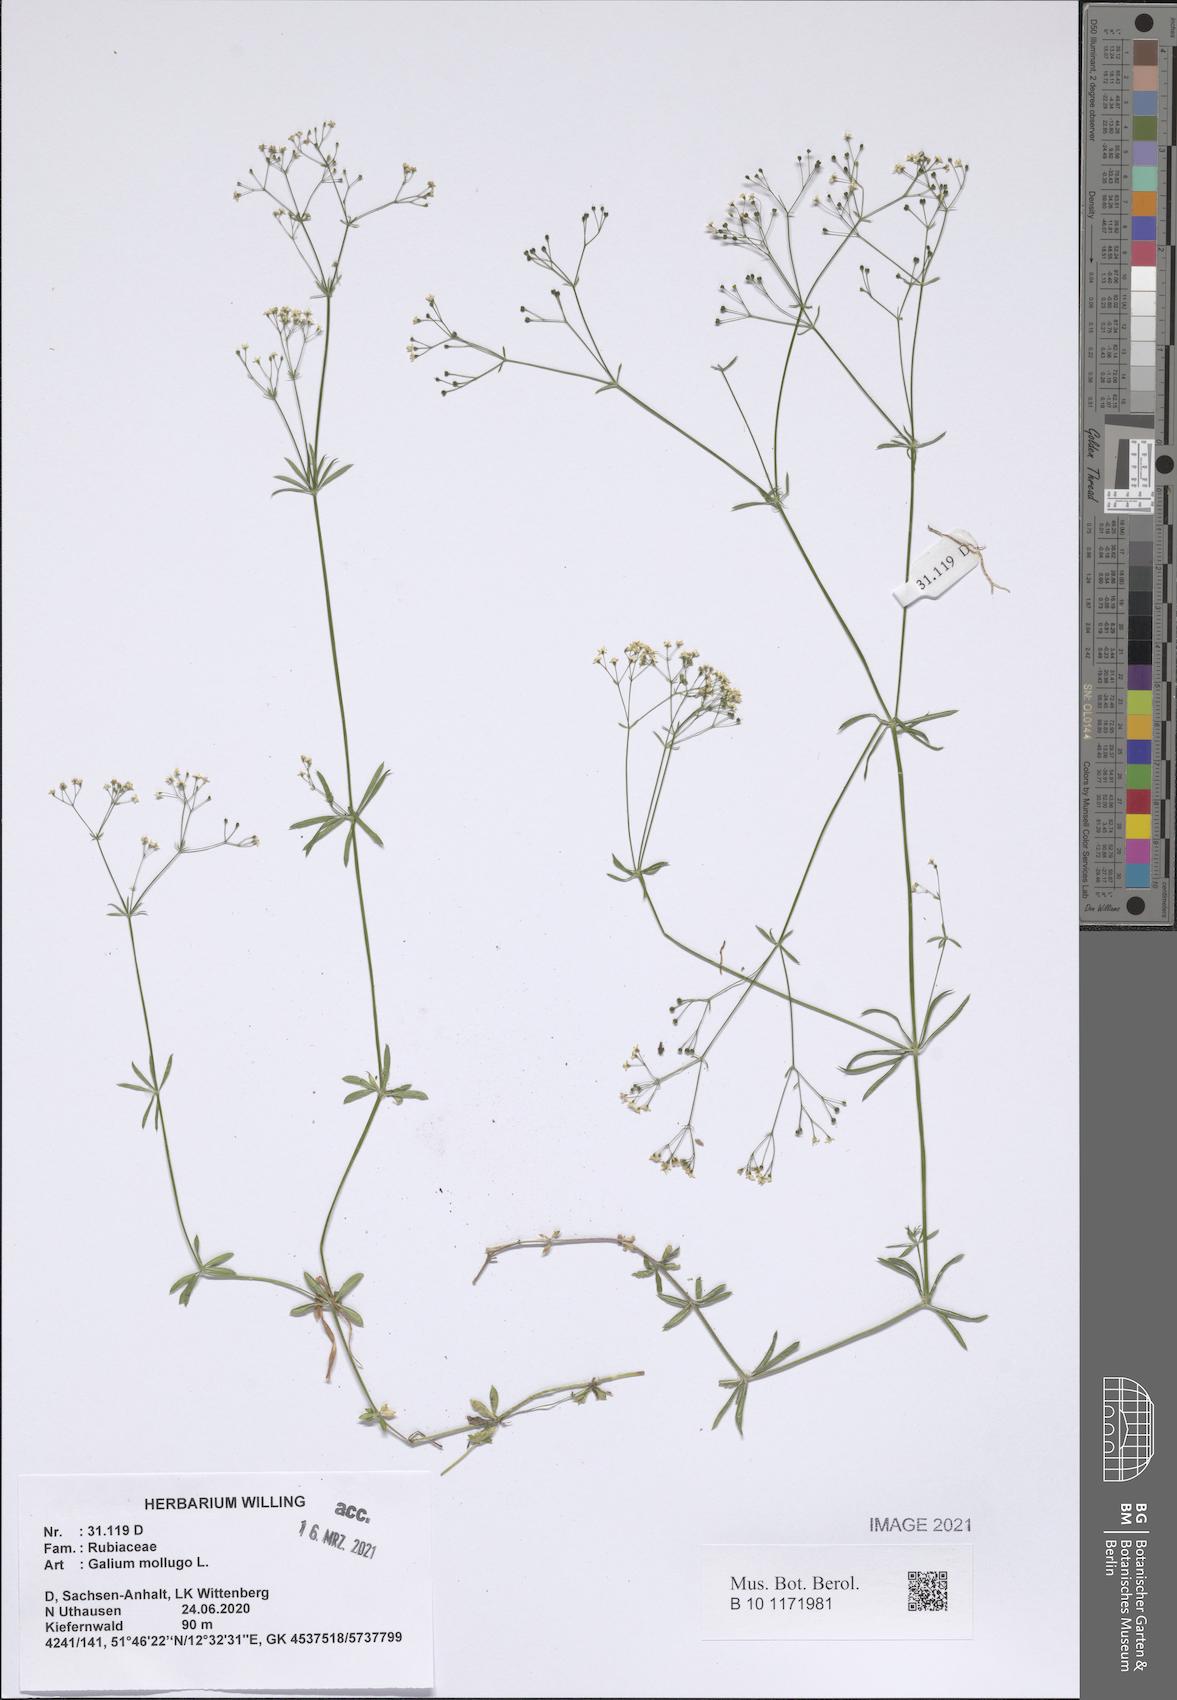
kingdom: Plantae
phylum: Tracheophyta
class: Magnoliopsida
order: Gentianales
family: Rubiaceae
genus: Galium
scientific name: Galium mollugo
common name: Hedge bedstraw
